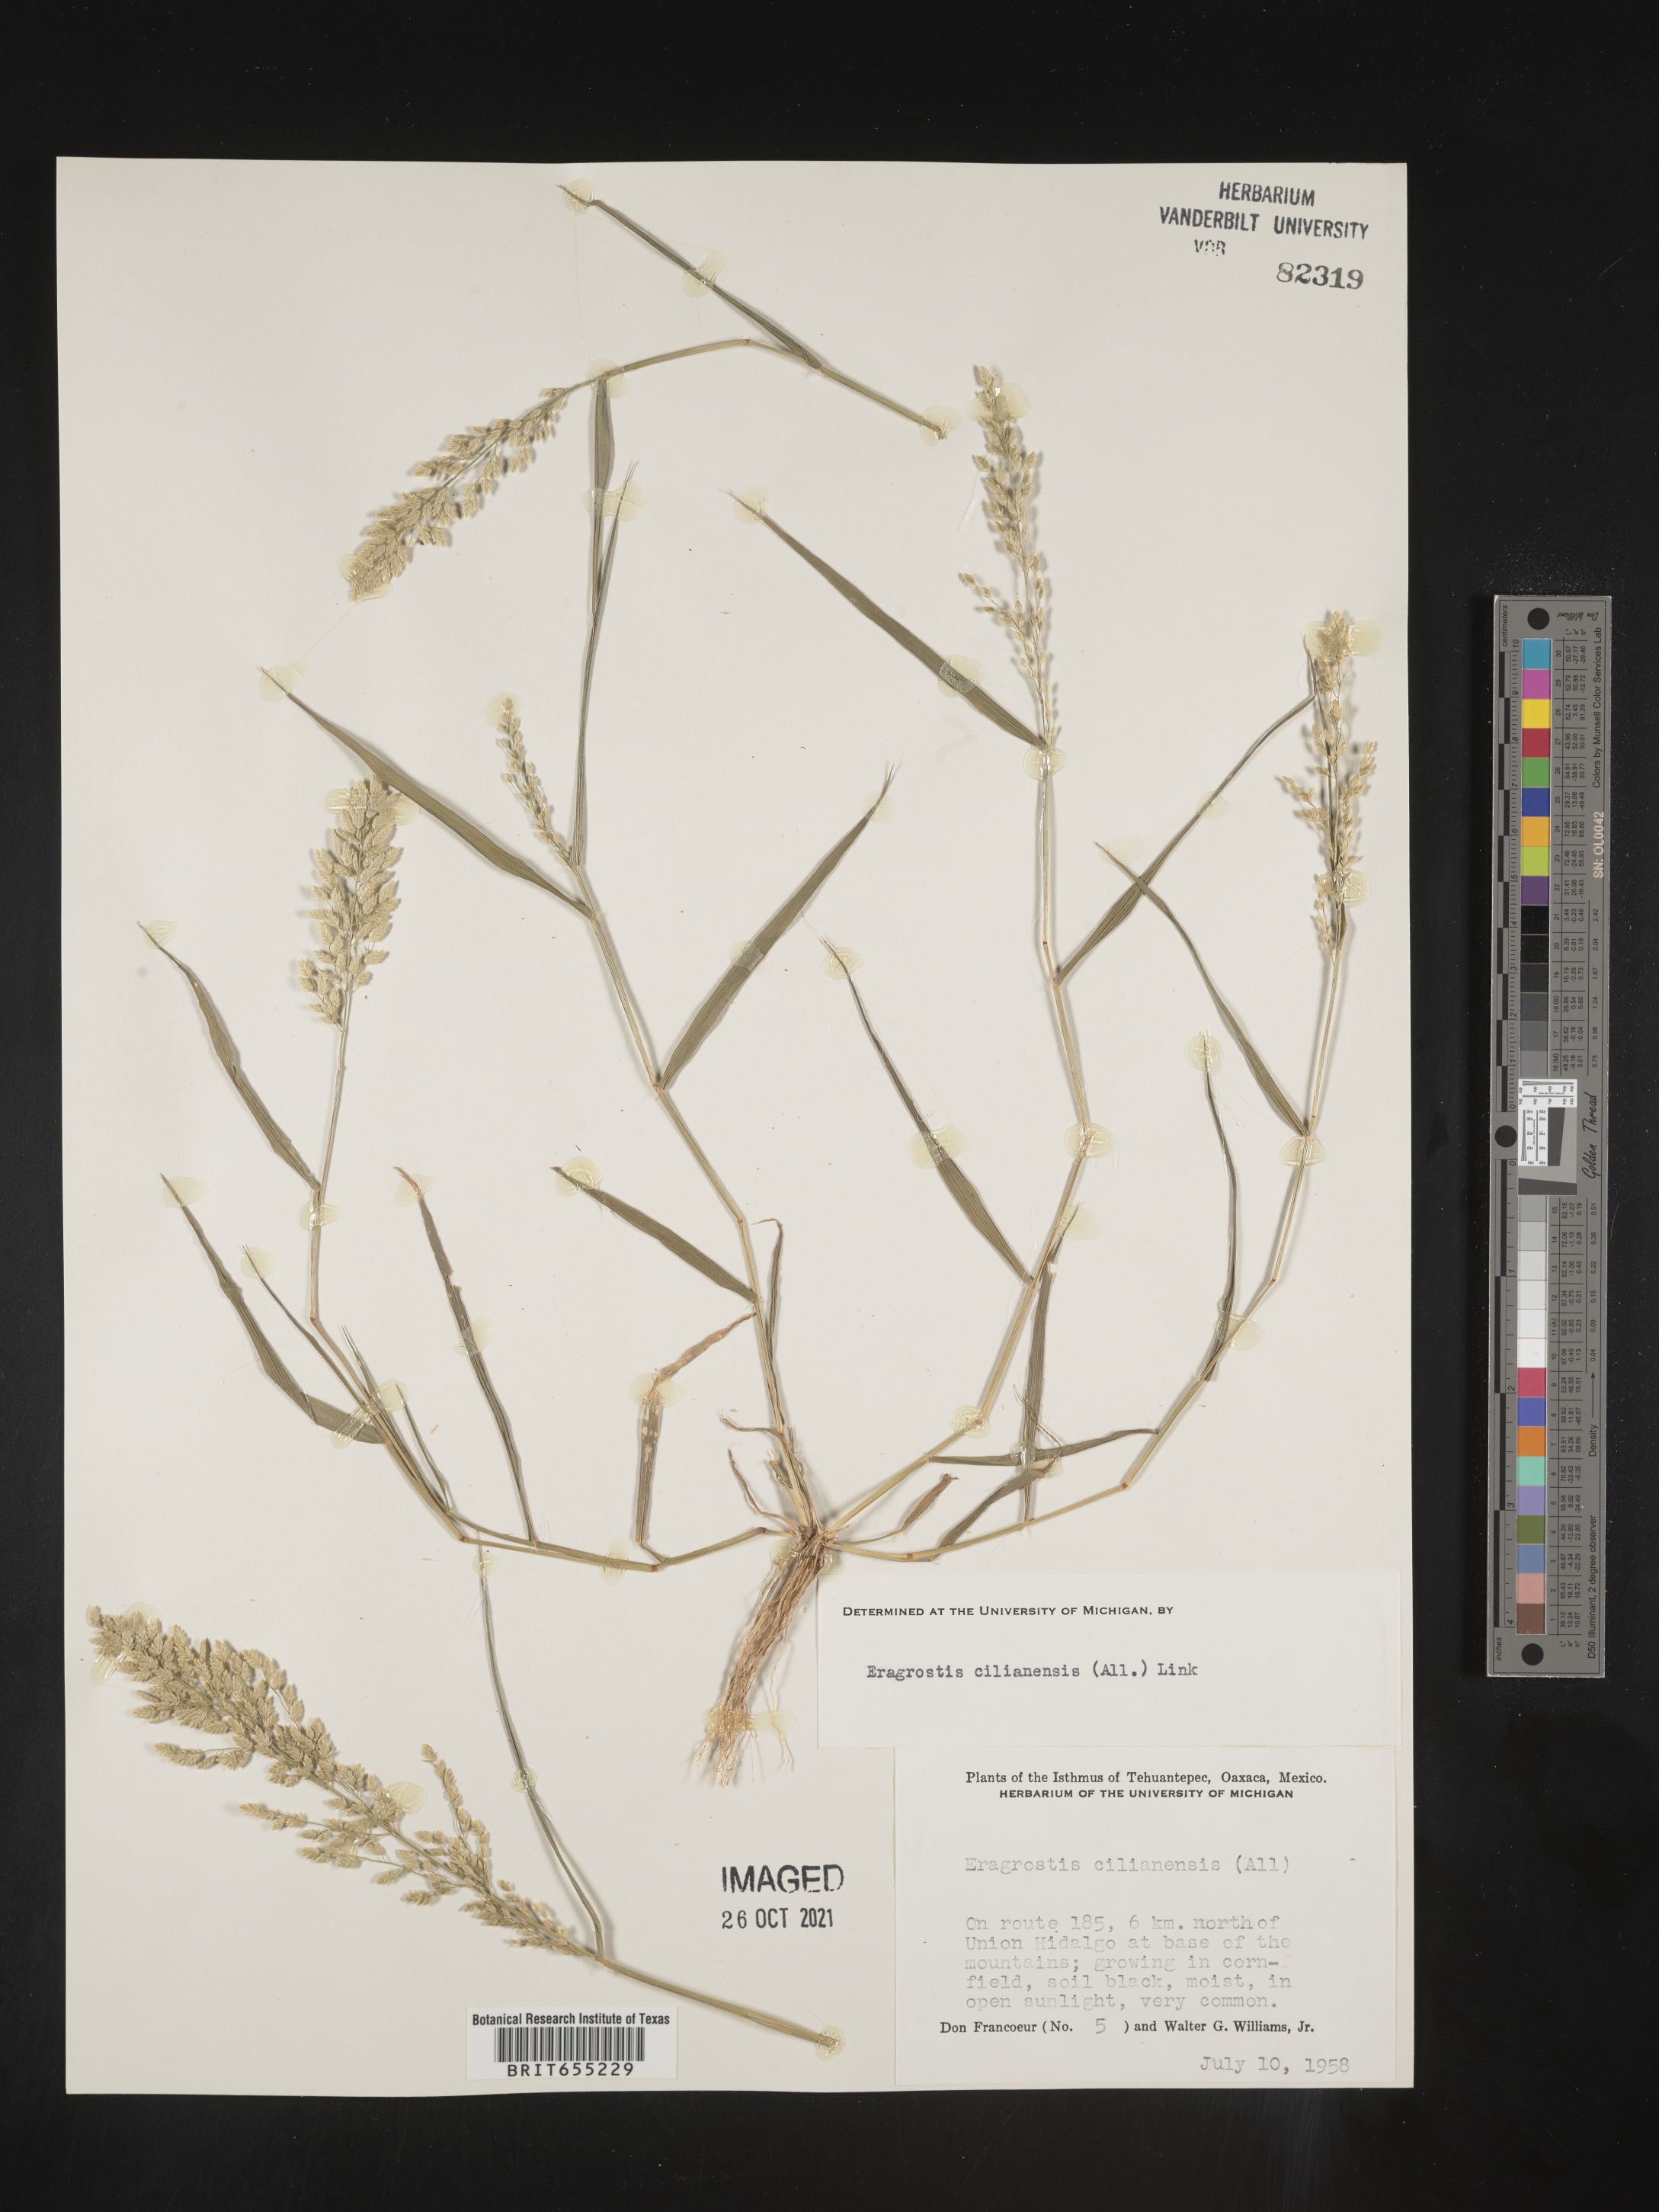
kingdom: Plantae
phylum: Tracheophyta
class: Liliopsida
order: Poales
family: Poaceae
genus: Eragrostis
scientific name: Eragrostis
